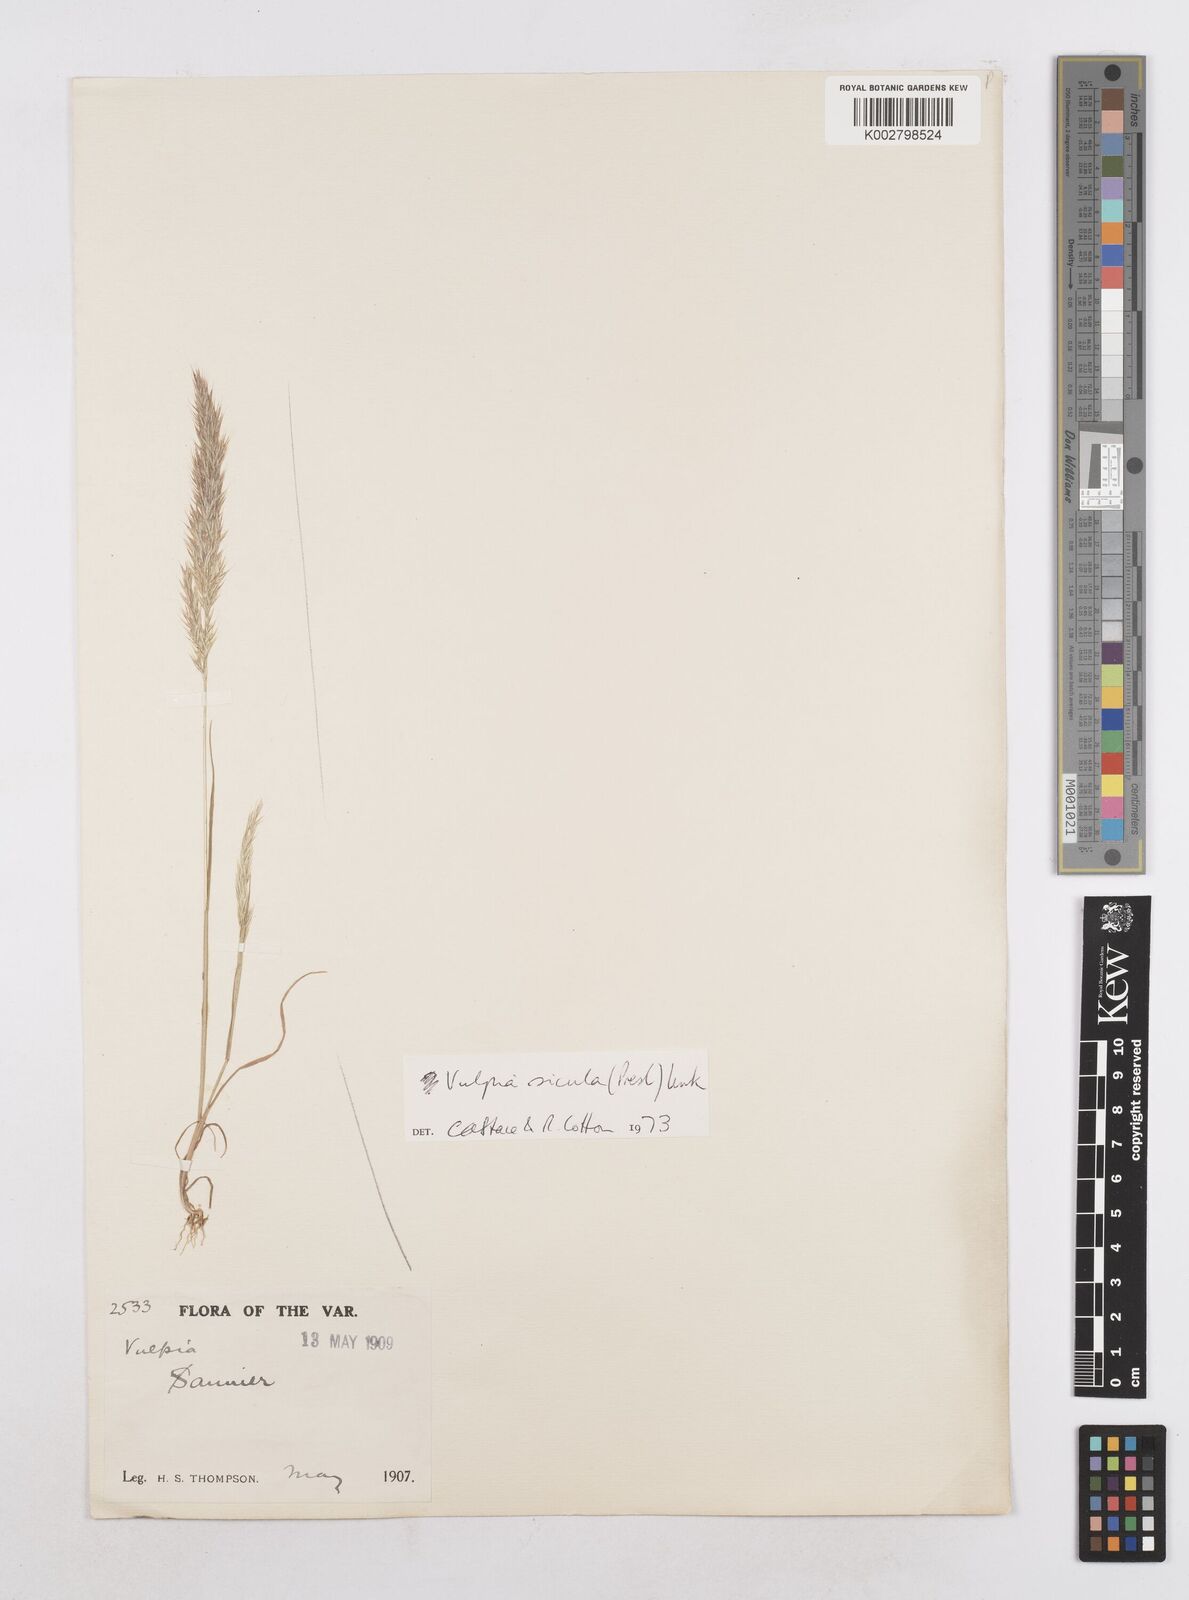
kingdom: Plantae
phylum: Tracheophyta
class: Liliopsida
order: Poales
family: Poaceae
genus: Festuca
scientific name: Festuca sicula
